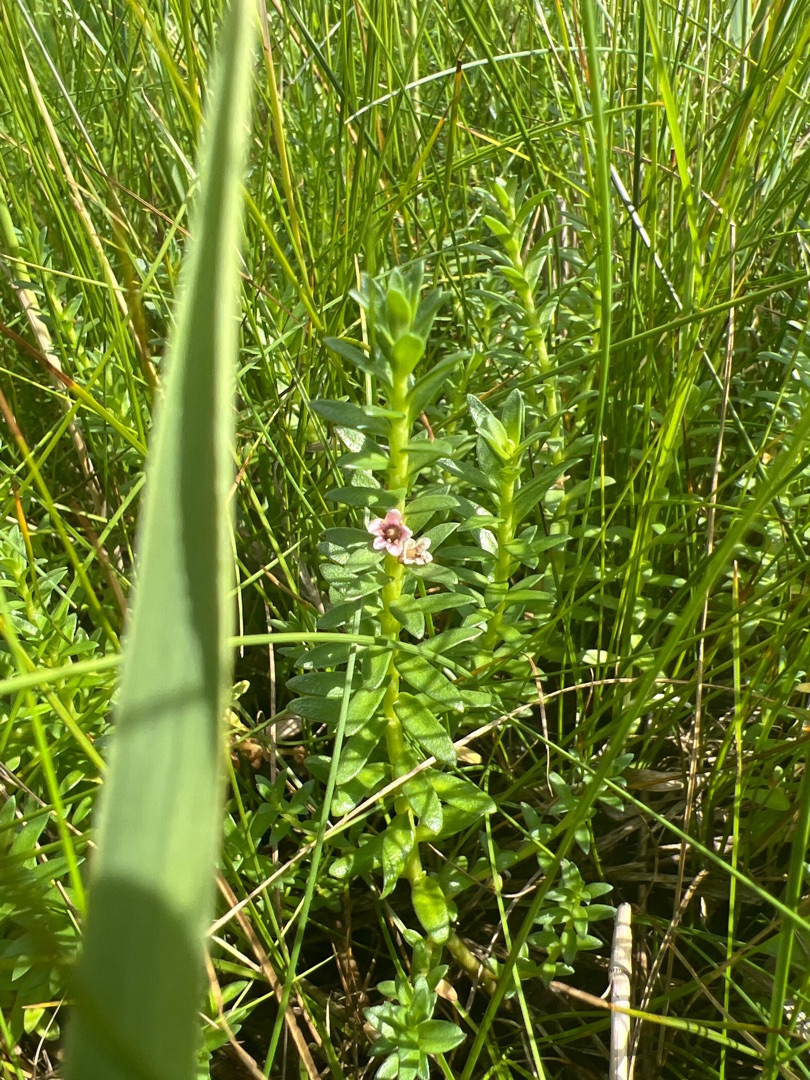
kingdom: Plantae
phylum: Tracheophyta
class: Magnoliopsida
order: Ericales
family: Primulaceae
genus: Lysimachia
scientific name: Lysimachia maritima
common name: Sandkryb
